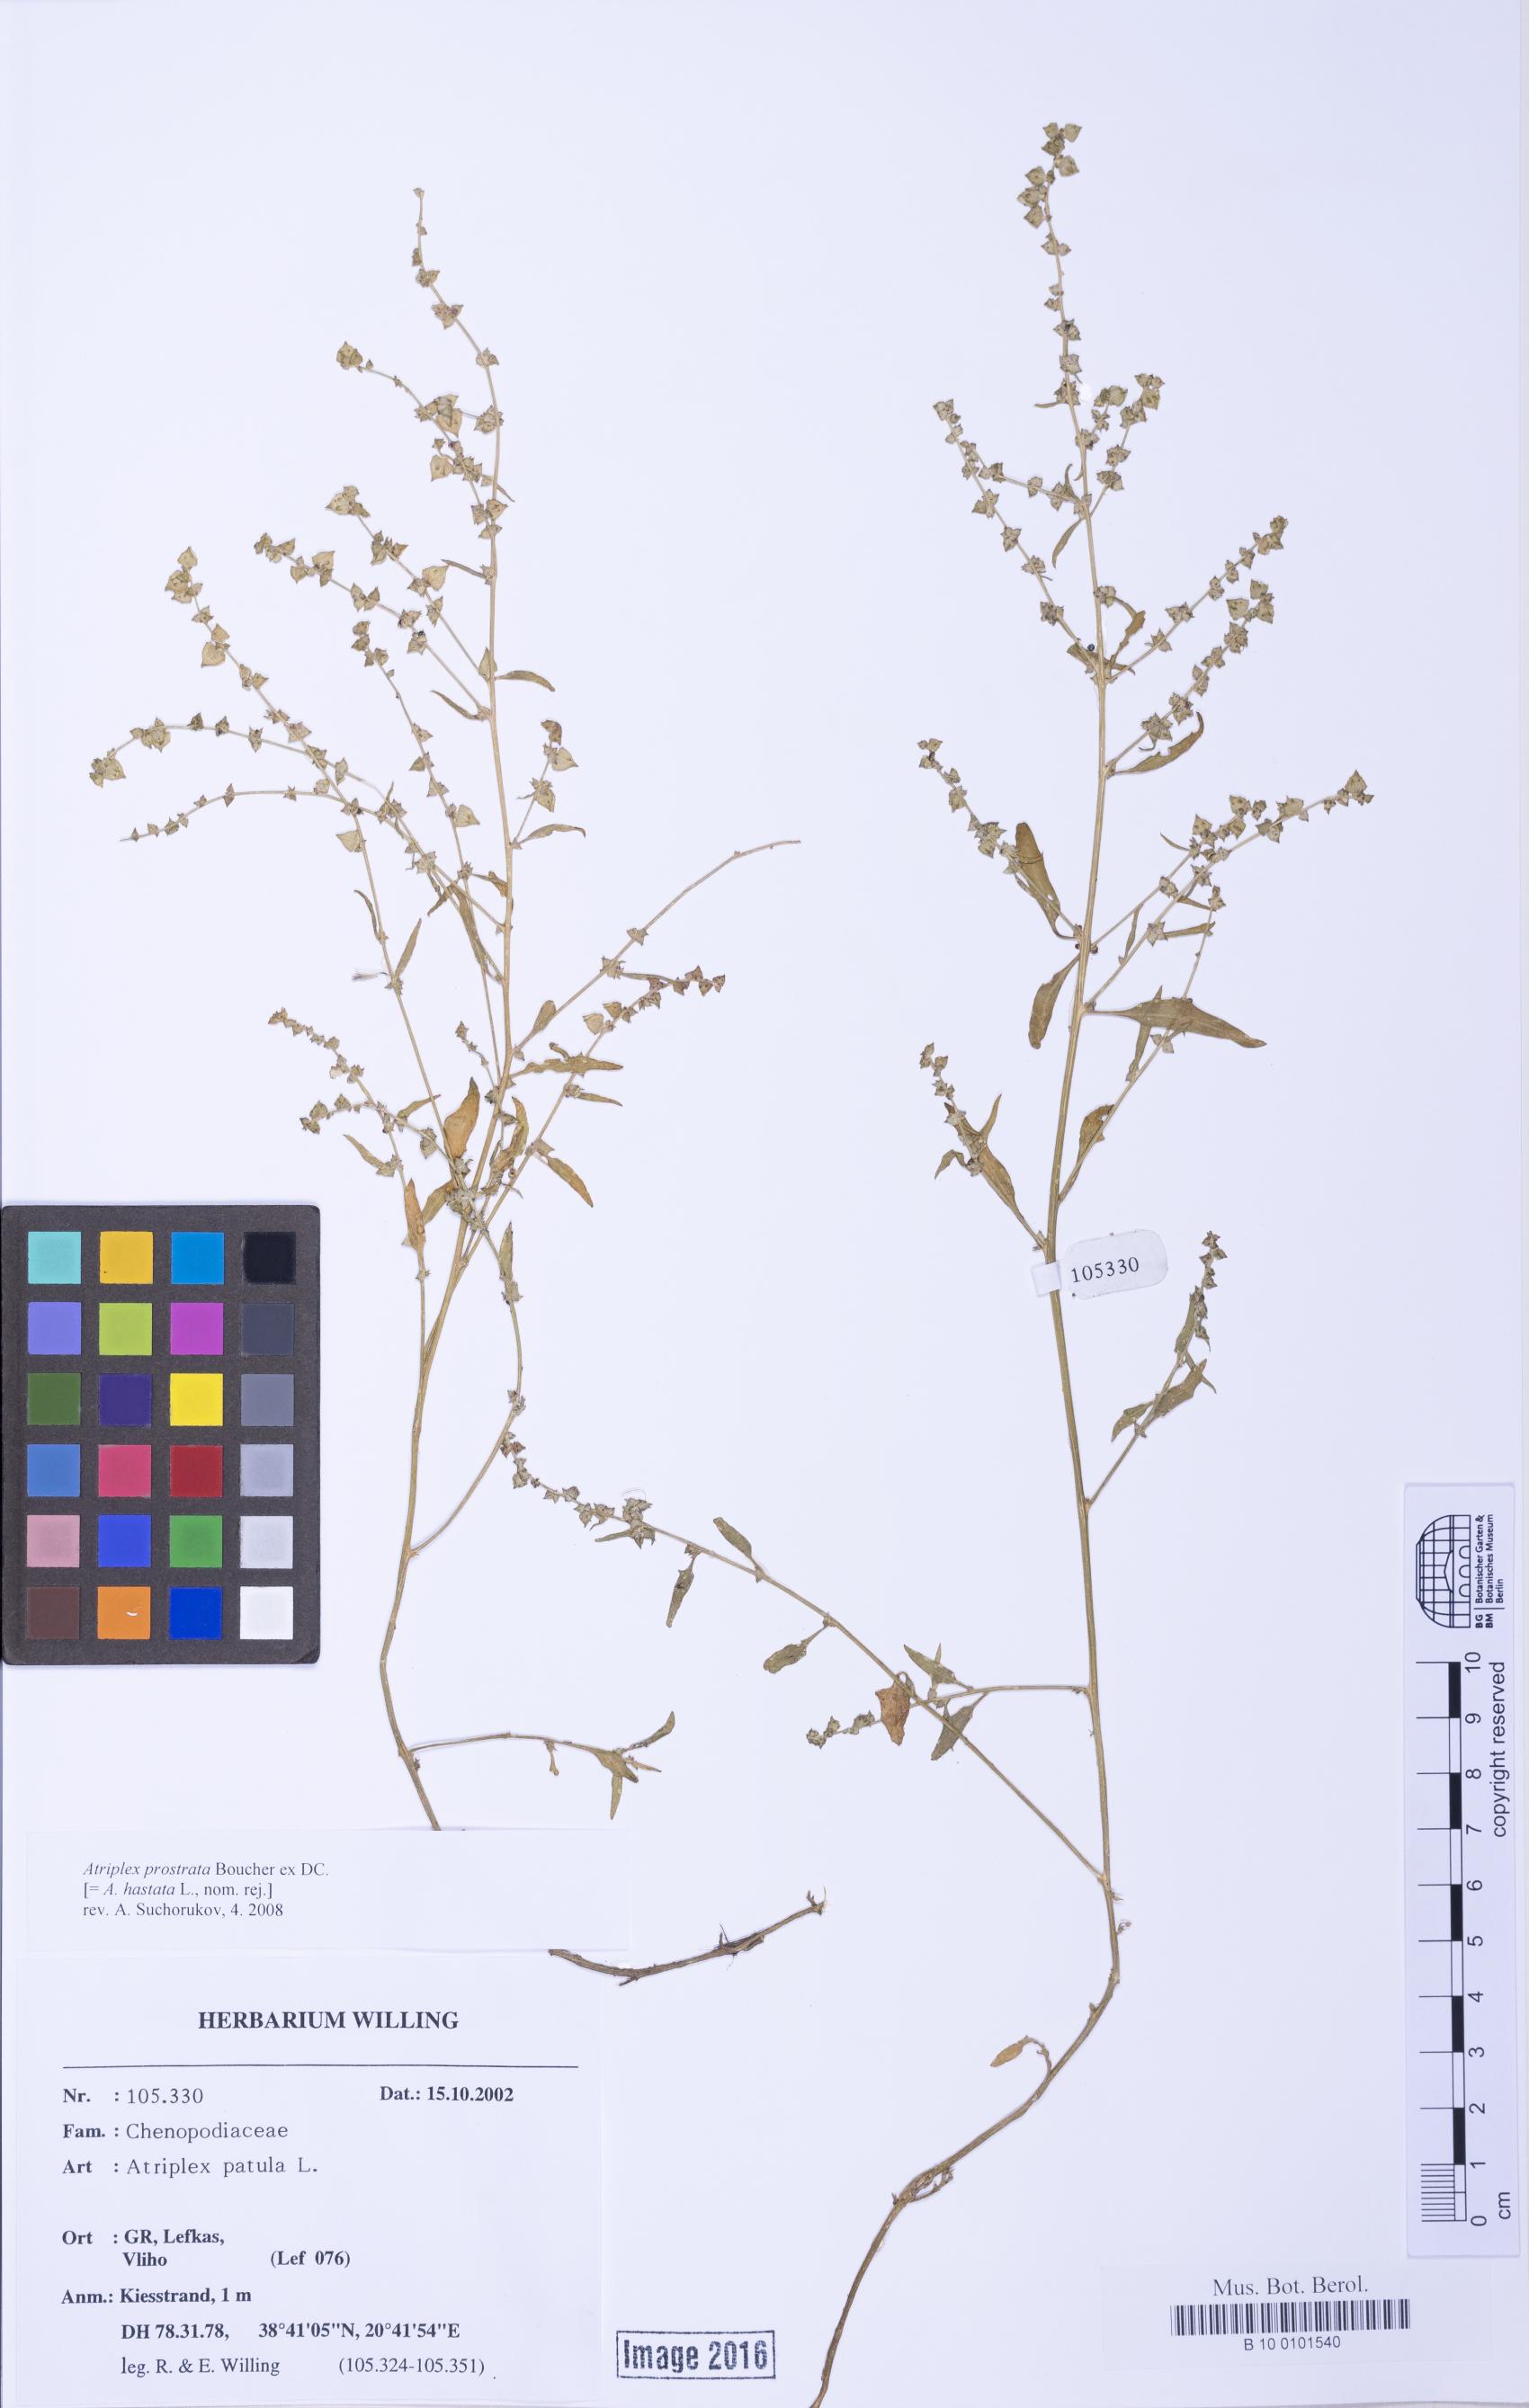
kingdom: Plantae
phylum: Tracheophyta
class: Magnoliopsida
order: Caryophyllales
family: Amaranthaceae
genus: Atriplex
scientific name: Atriplex prostrata
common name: Spear-leaved orache
